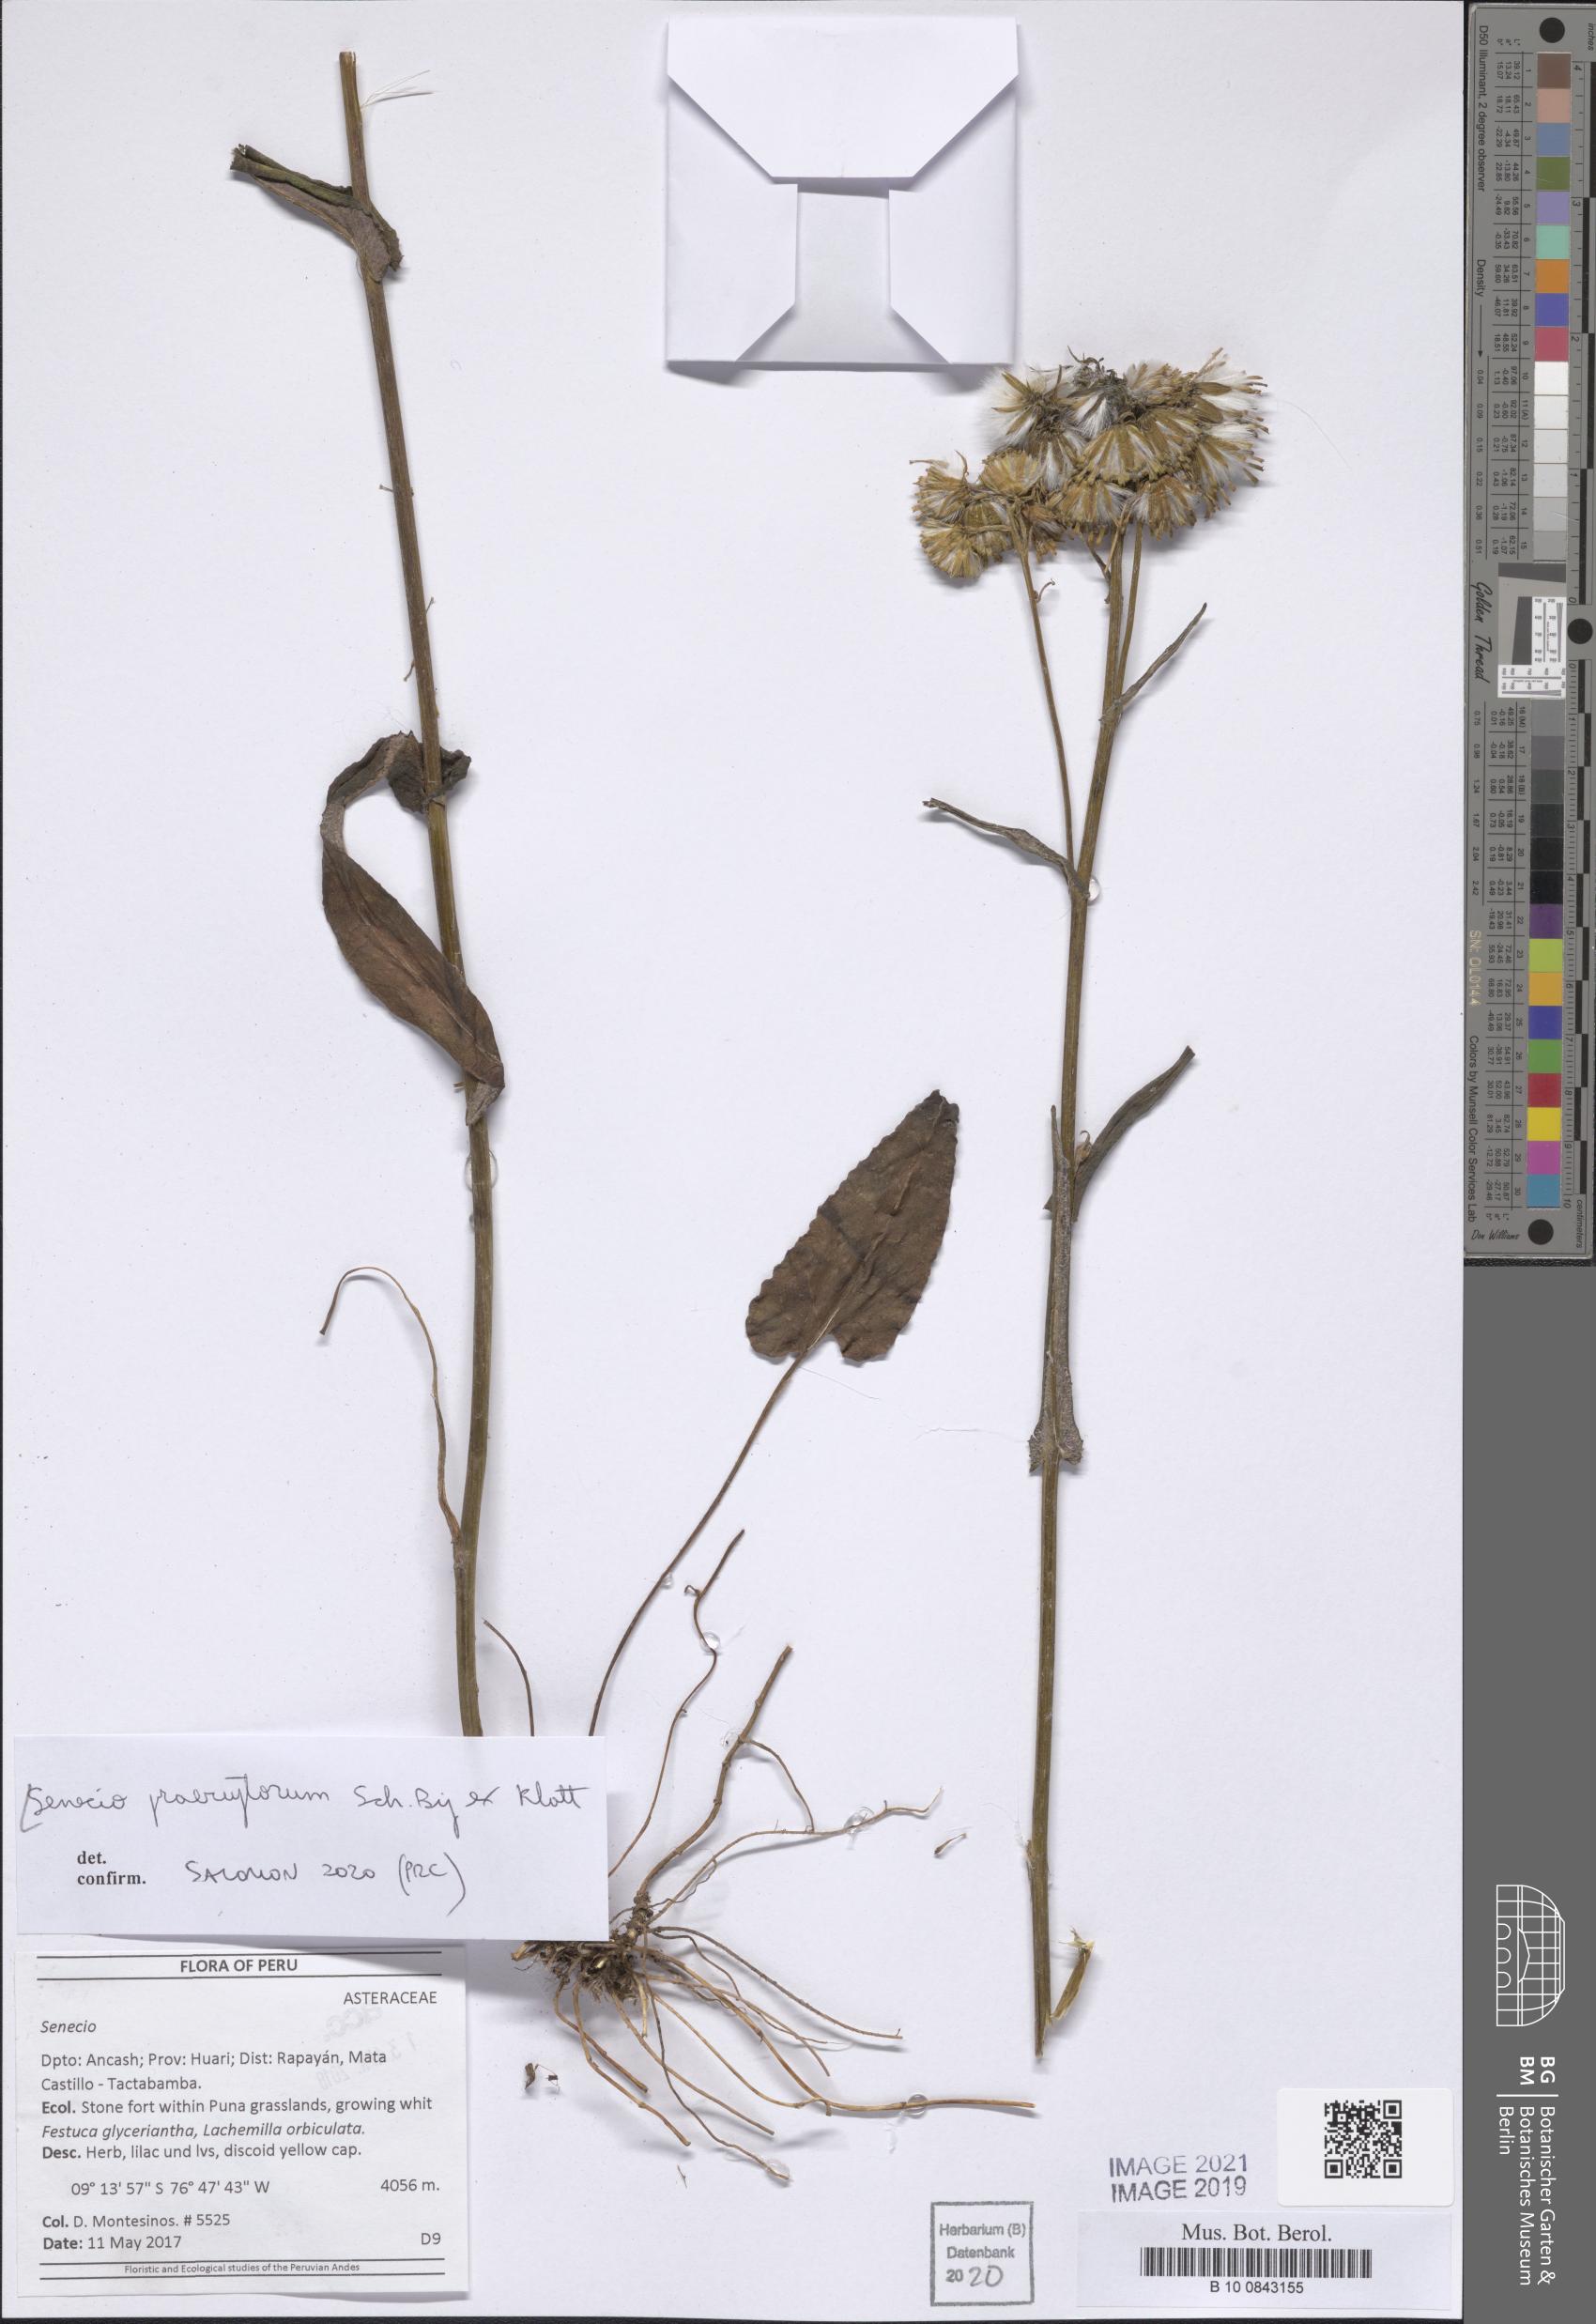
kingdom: Plantae
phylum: Tracheophyta
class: Magnoliopsida
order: Asterales
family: Asteraceae
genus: Senecio
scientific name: Senecio praeruptorum
